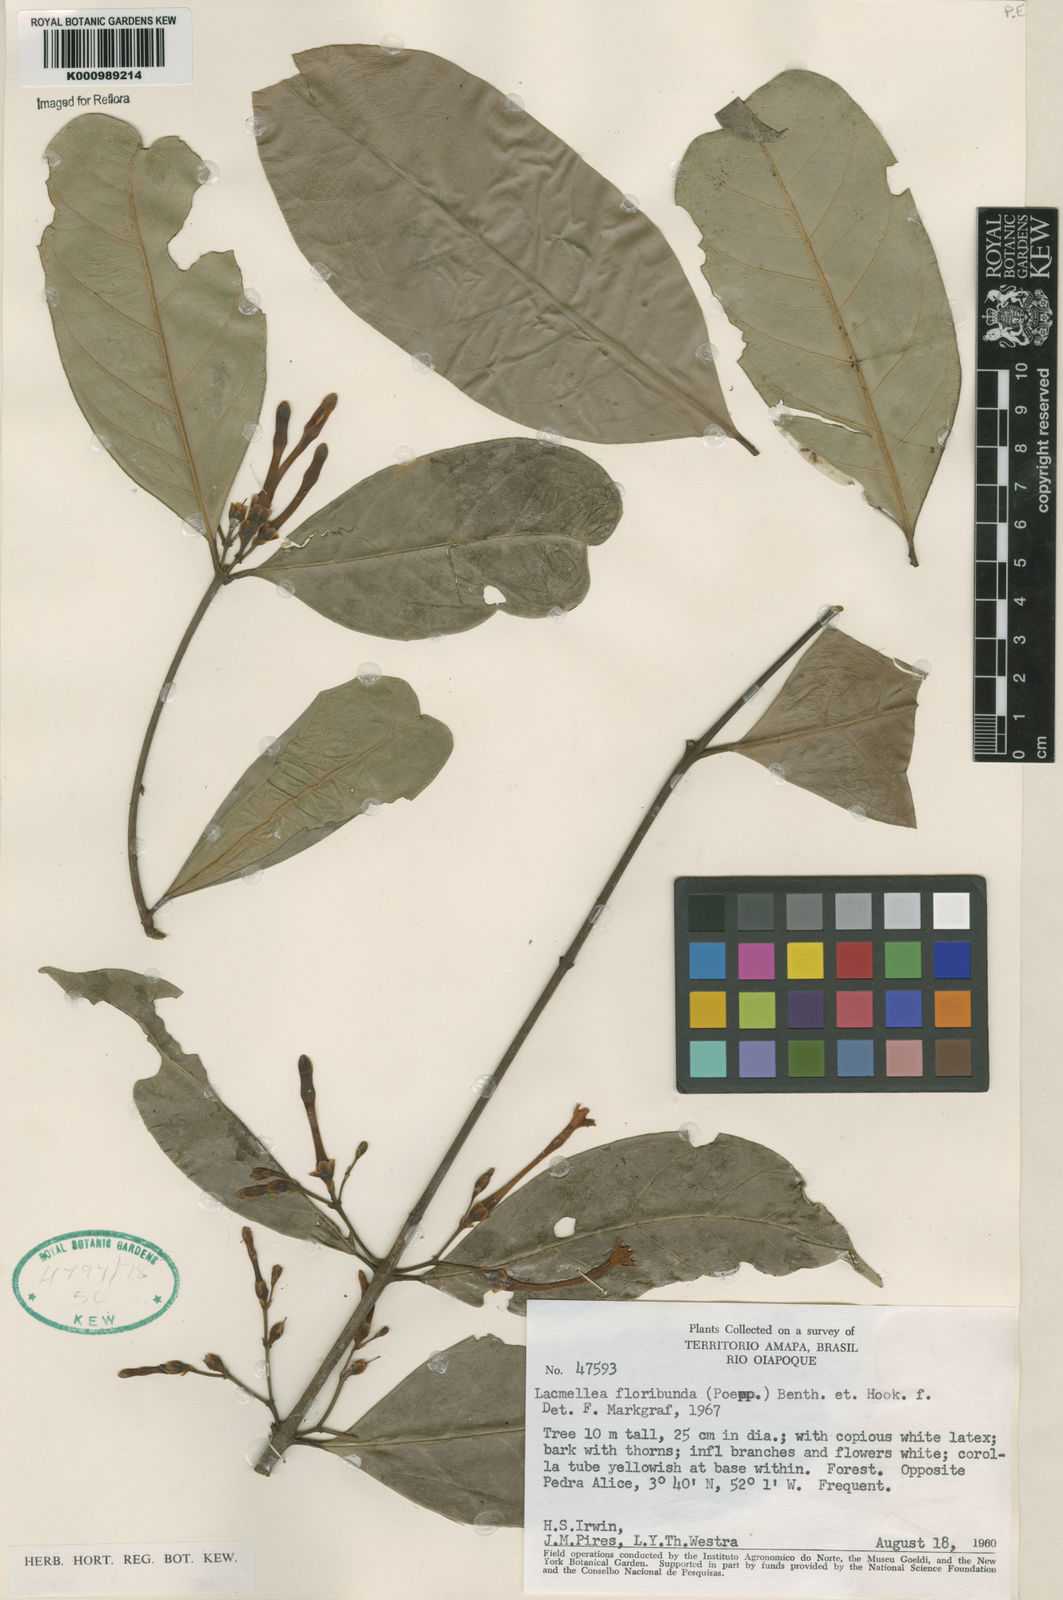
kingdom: Plantae
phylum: Tracheophyta
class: Magnoliopsida
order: Gentianales
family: Apocynaceae
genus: Lacmellea
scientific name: Lacmellea aculeata
